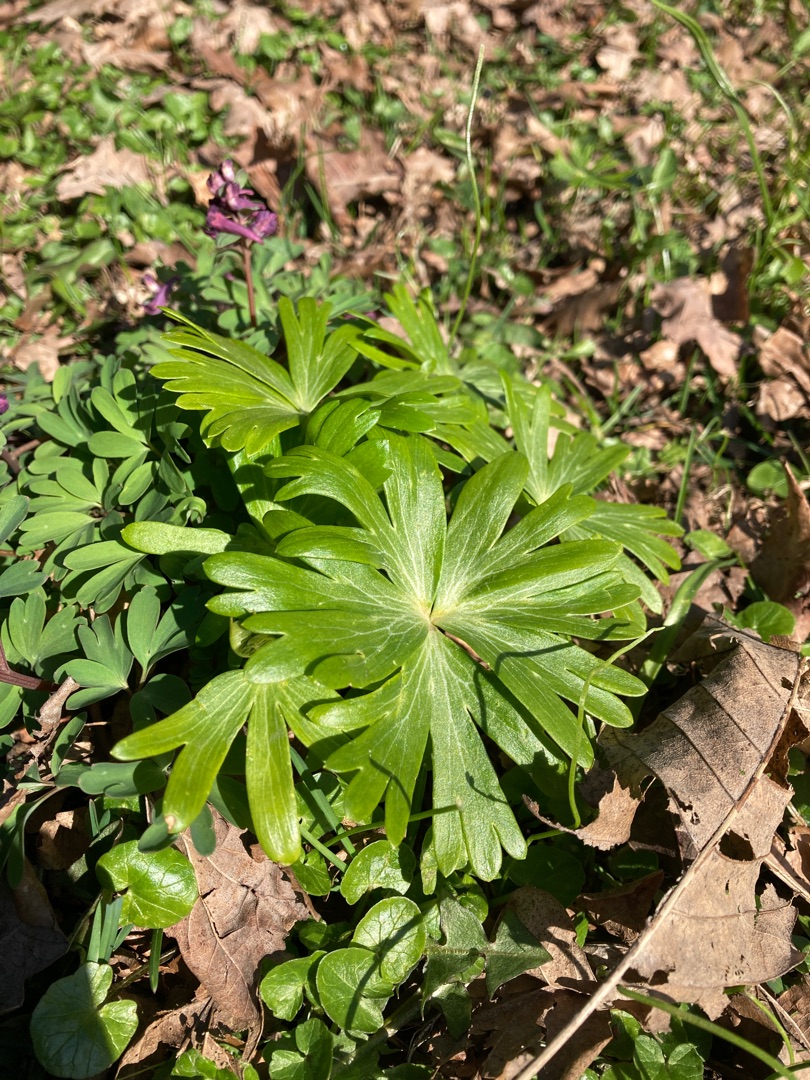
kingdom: Plantae
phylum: Tracheophyta
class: Magnoliopsida
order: Ranunculales
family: Ranunculaceae
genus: Eranthis
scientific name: Eranthis hyemalis
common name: Erantis
